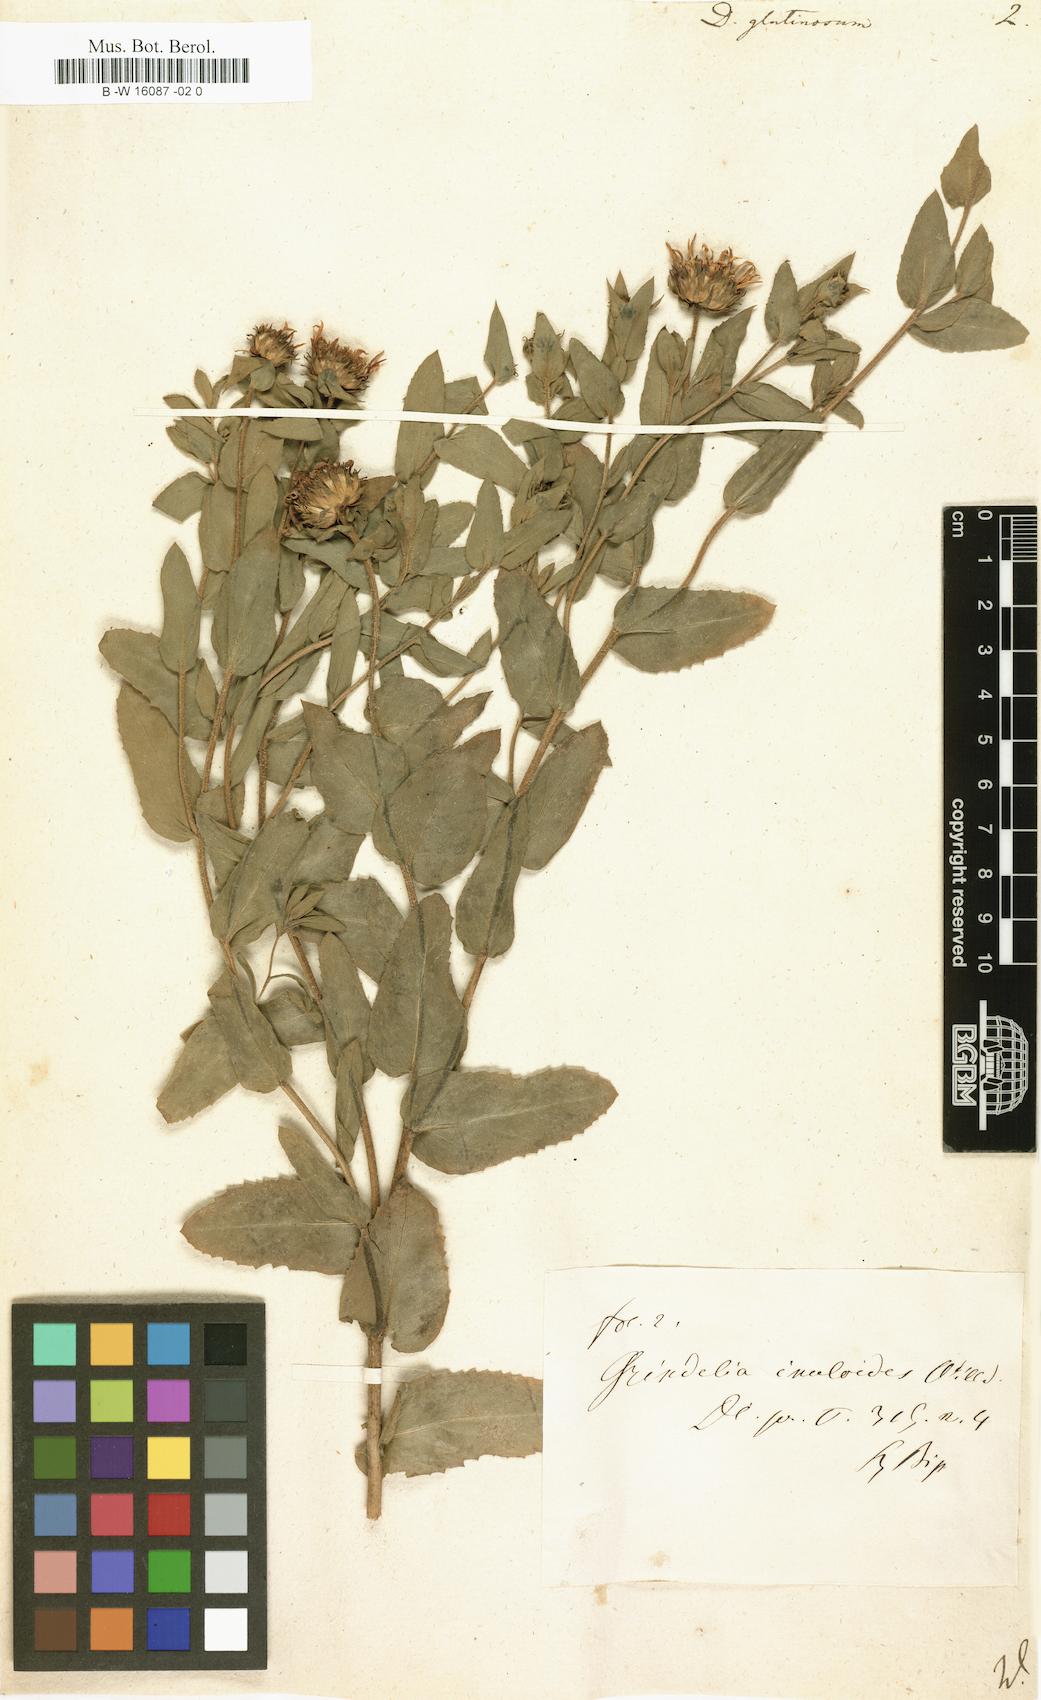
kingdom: Plantae
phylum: Tracheophyta
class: Magnoliopsida
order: Asterales
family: Asteraceae
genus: Grindelia
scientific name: Grindelia glutinosa
